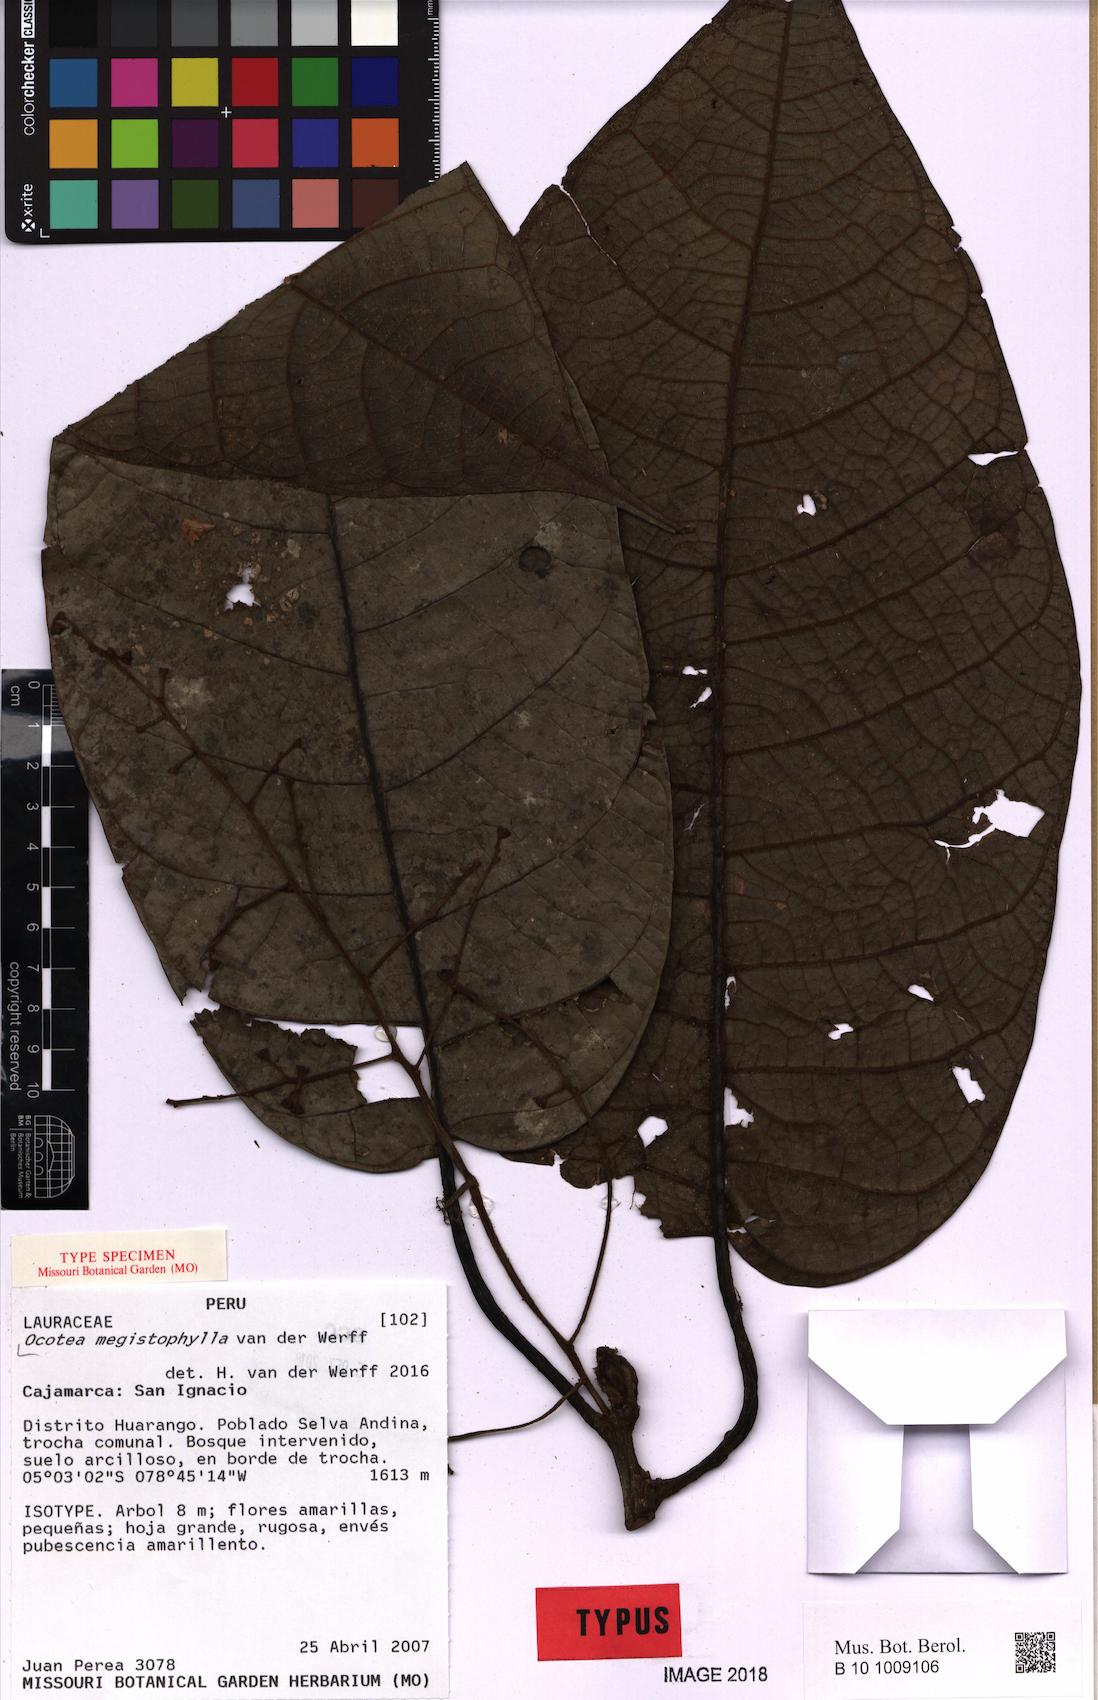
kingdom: Plantae
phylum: Tracheophyta
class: Magnoliopsida
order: Laurales
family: Lauraceae
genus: Ocotea
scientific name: Ocotea megistophylla
